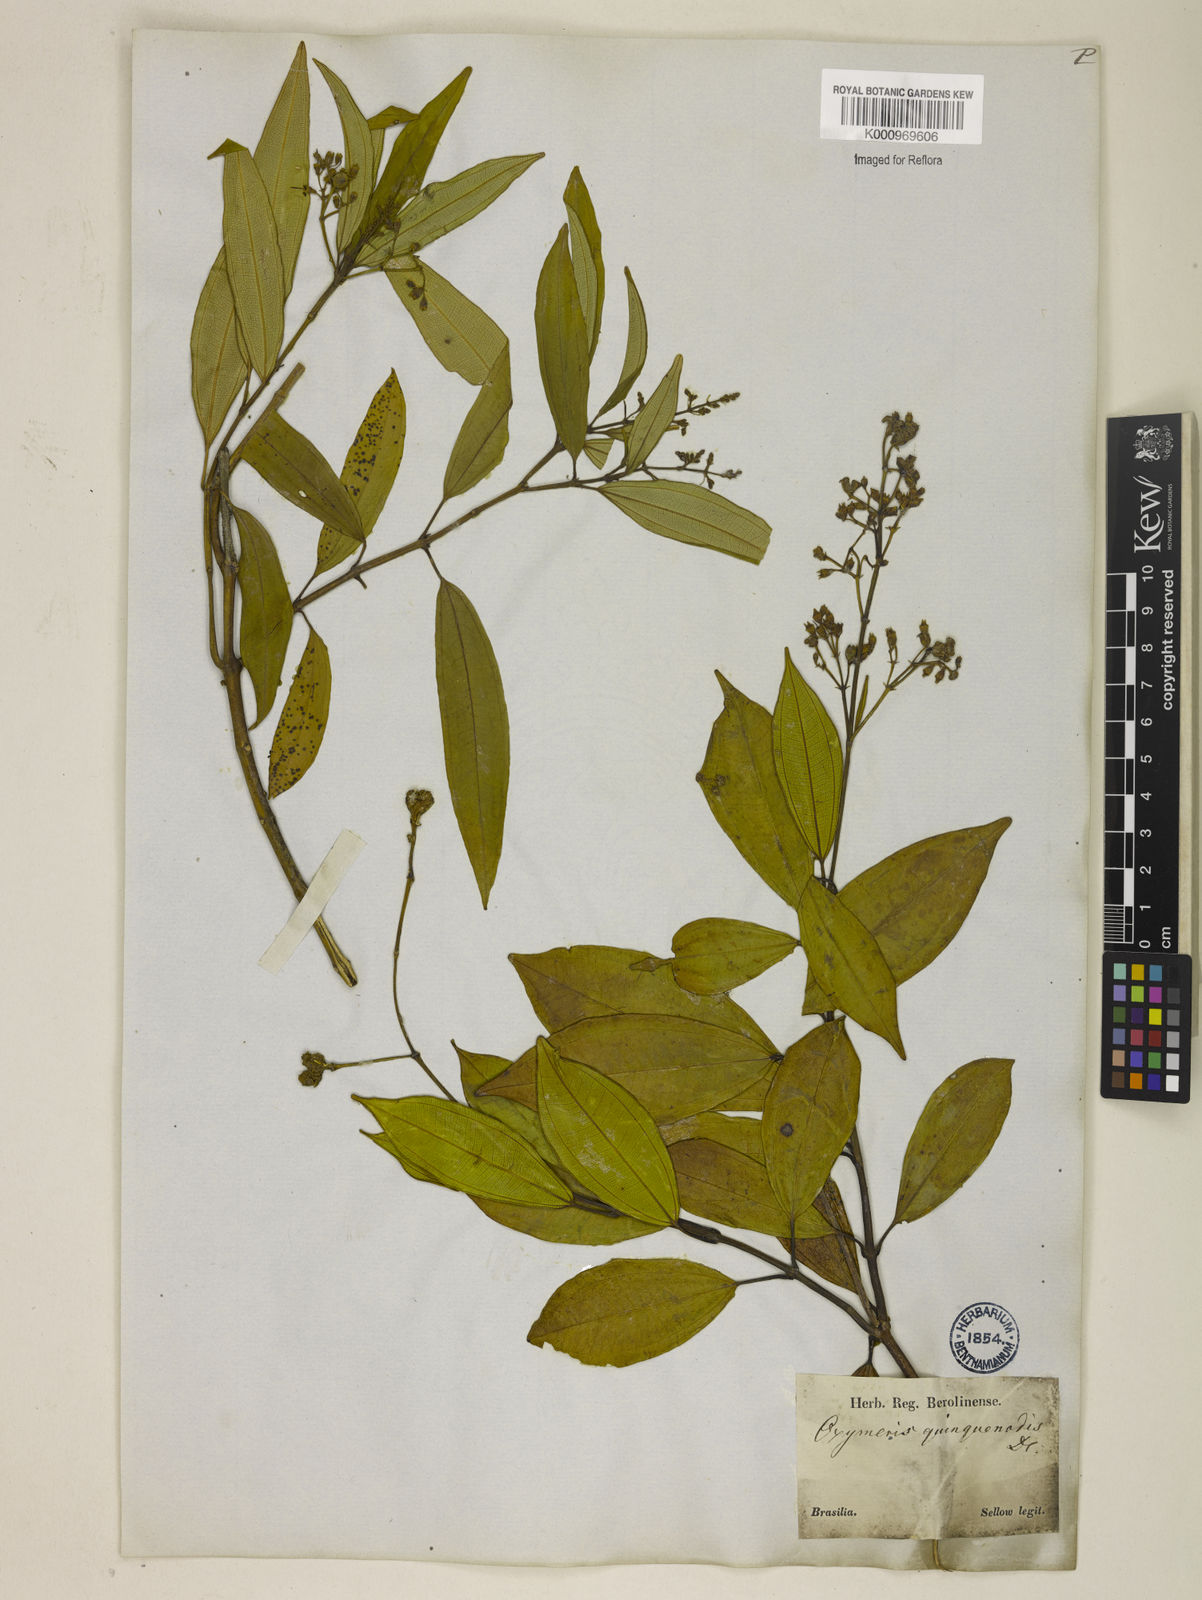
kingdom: Plantae
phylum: Tracheophyta
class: Magnoliopsida
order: Myrtales
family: Melastomataceae
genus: Miconia
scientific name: Miconia quinquenodis
